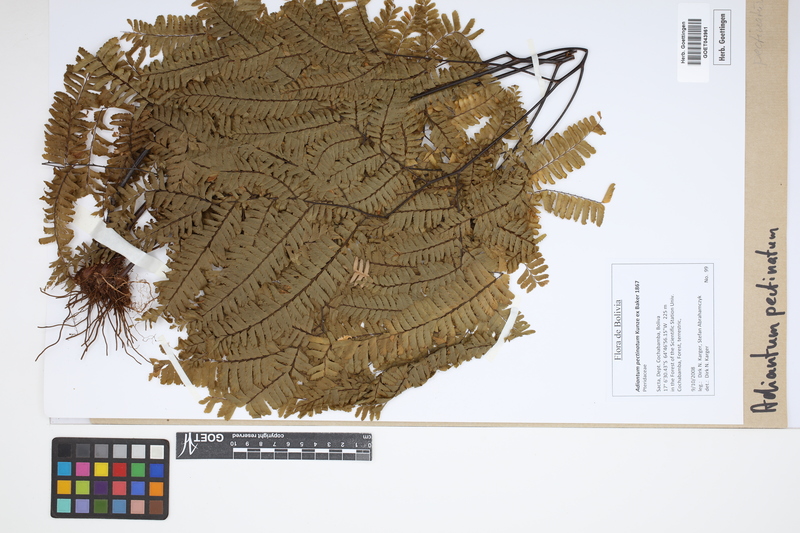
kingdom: Plantae
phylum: Tracheophyta
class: Polypodiopsida
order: Polypodiales
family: Pteridaceae
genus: Adiantum
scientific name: Adiantum pectinatum
